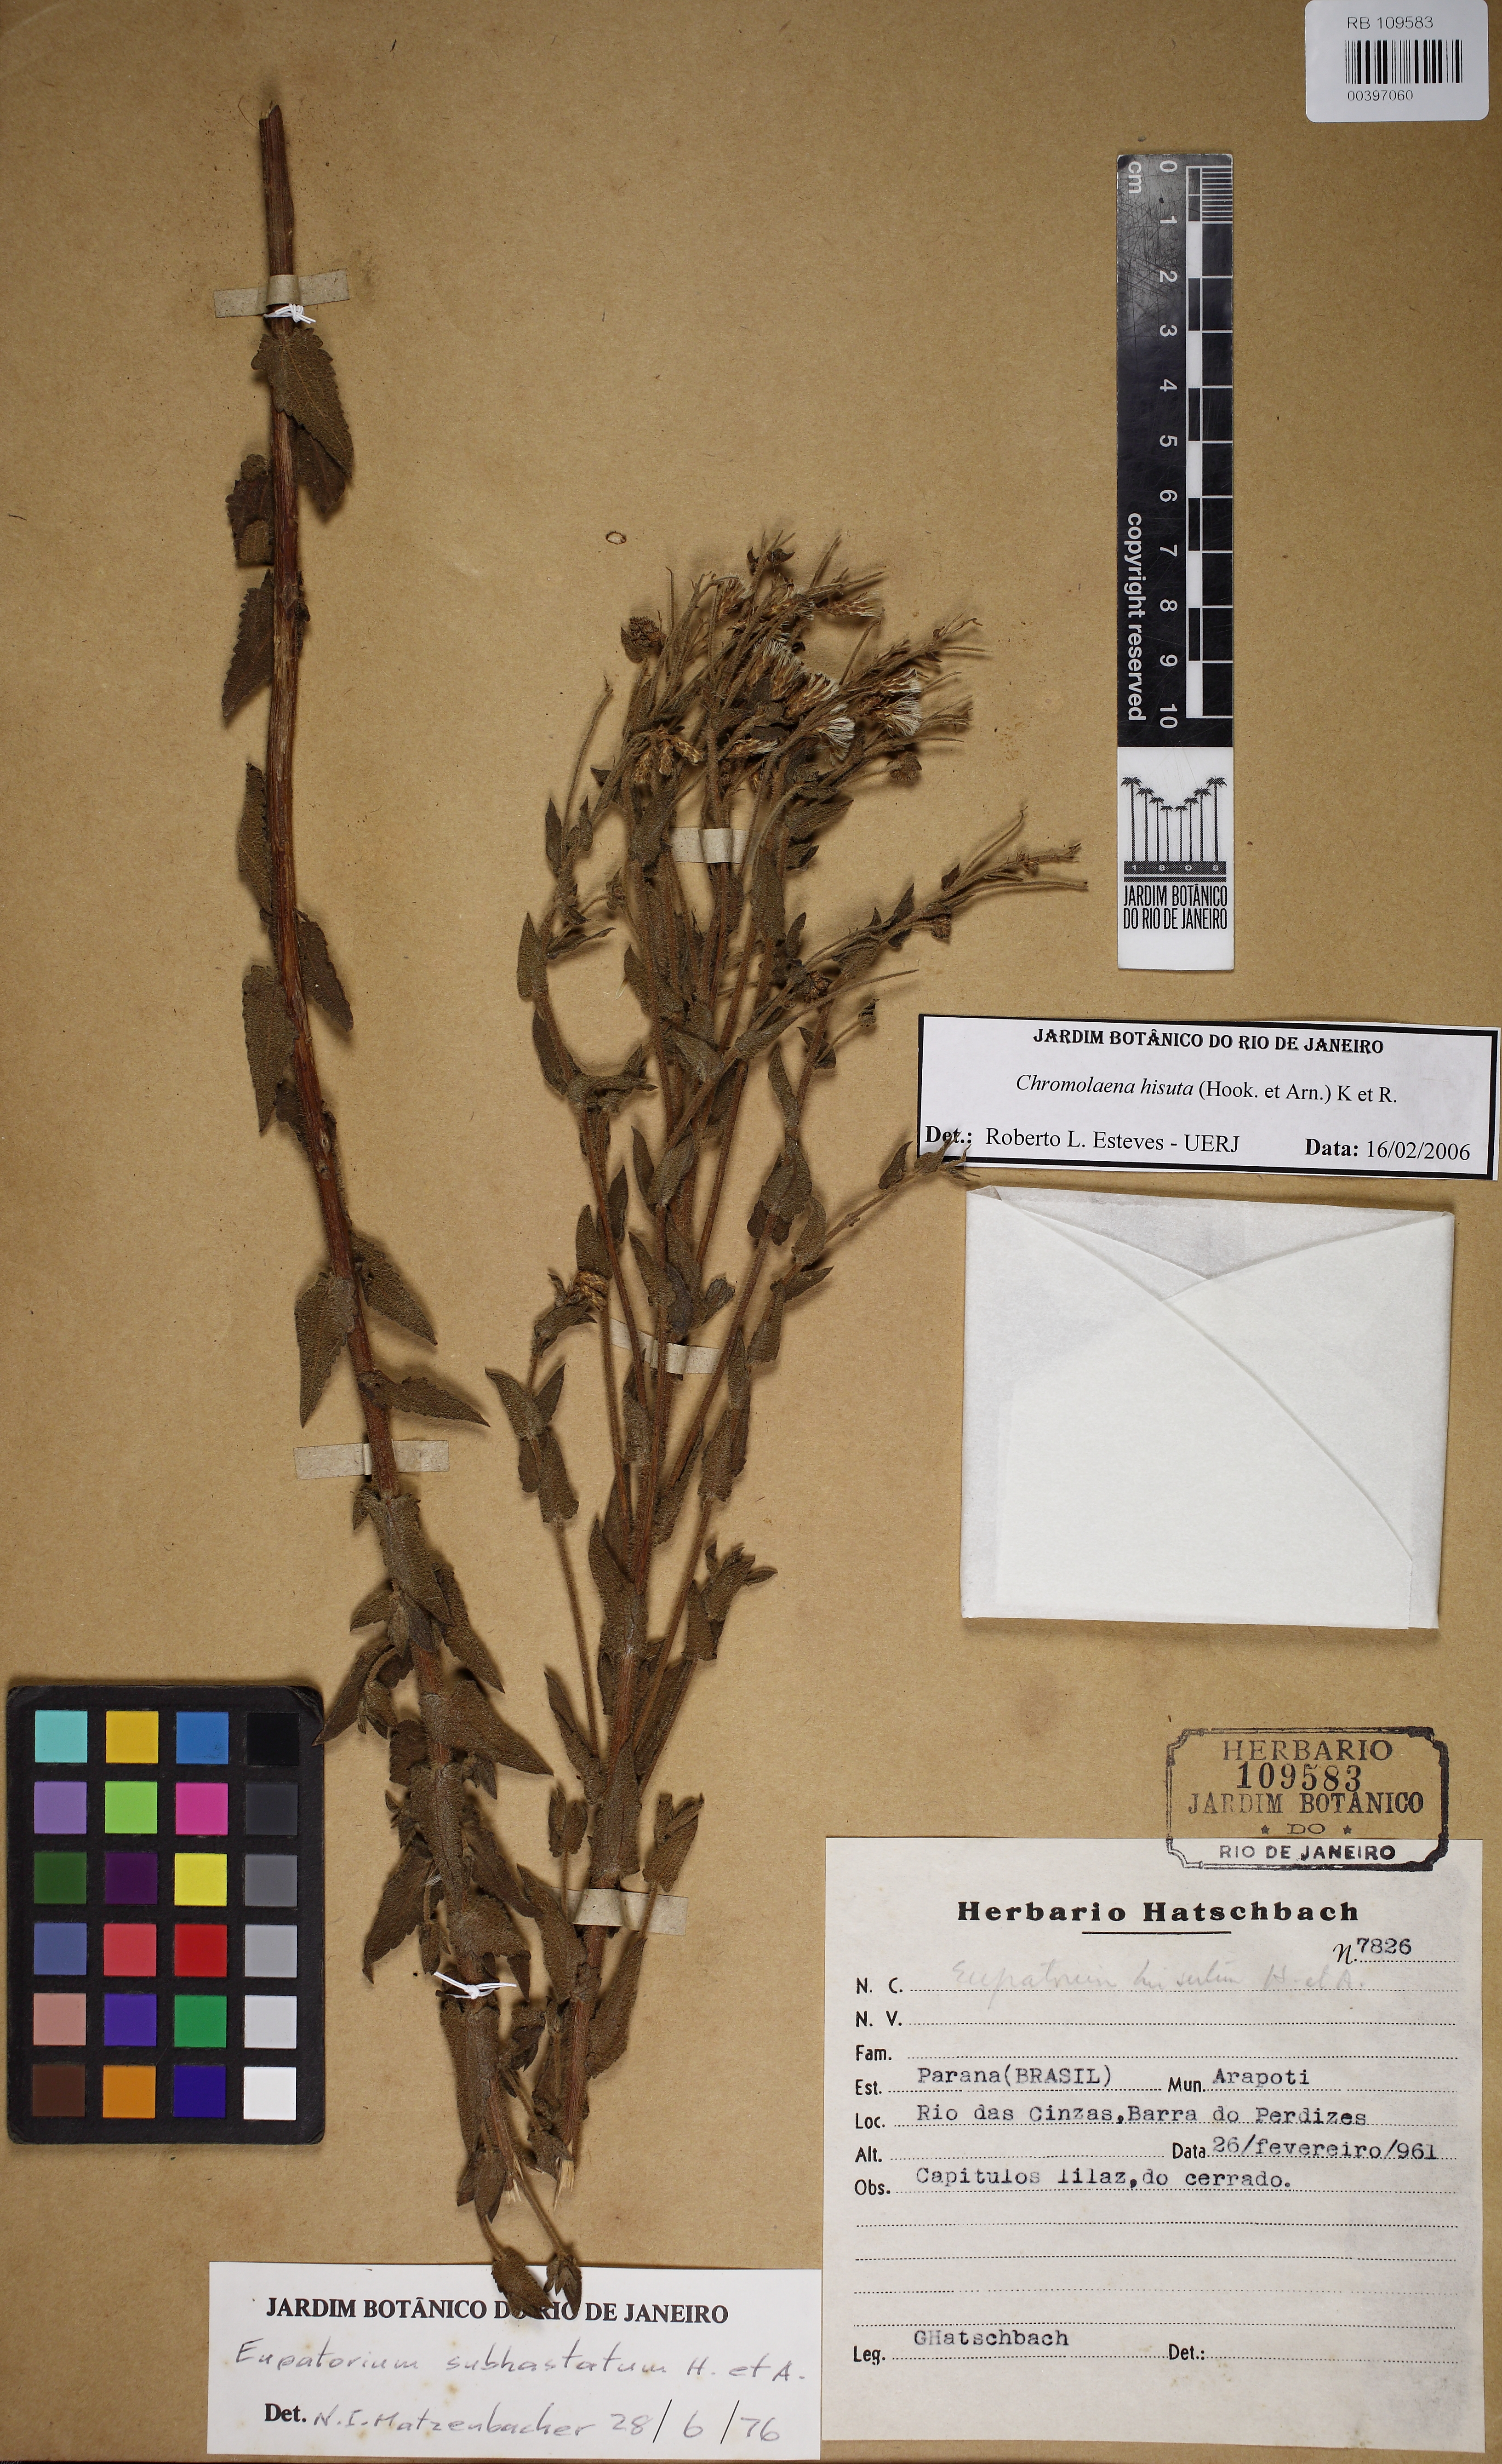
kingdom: Plantae
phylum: Tracheophyta
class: Magnoliopsida
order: Asterales
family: Asteraceae
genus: Chromolaena
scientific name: Chromolaena hirsuta
